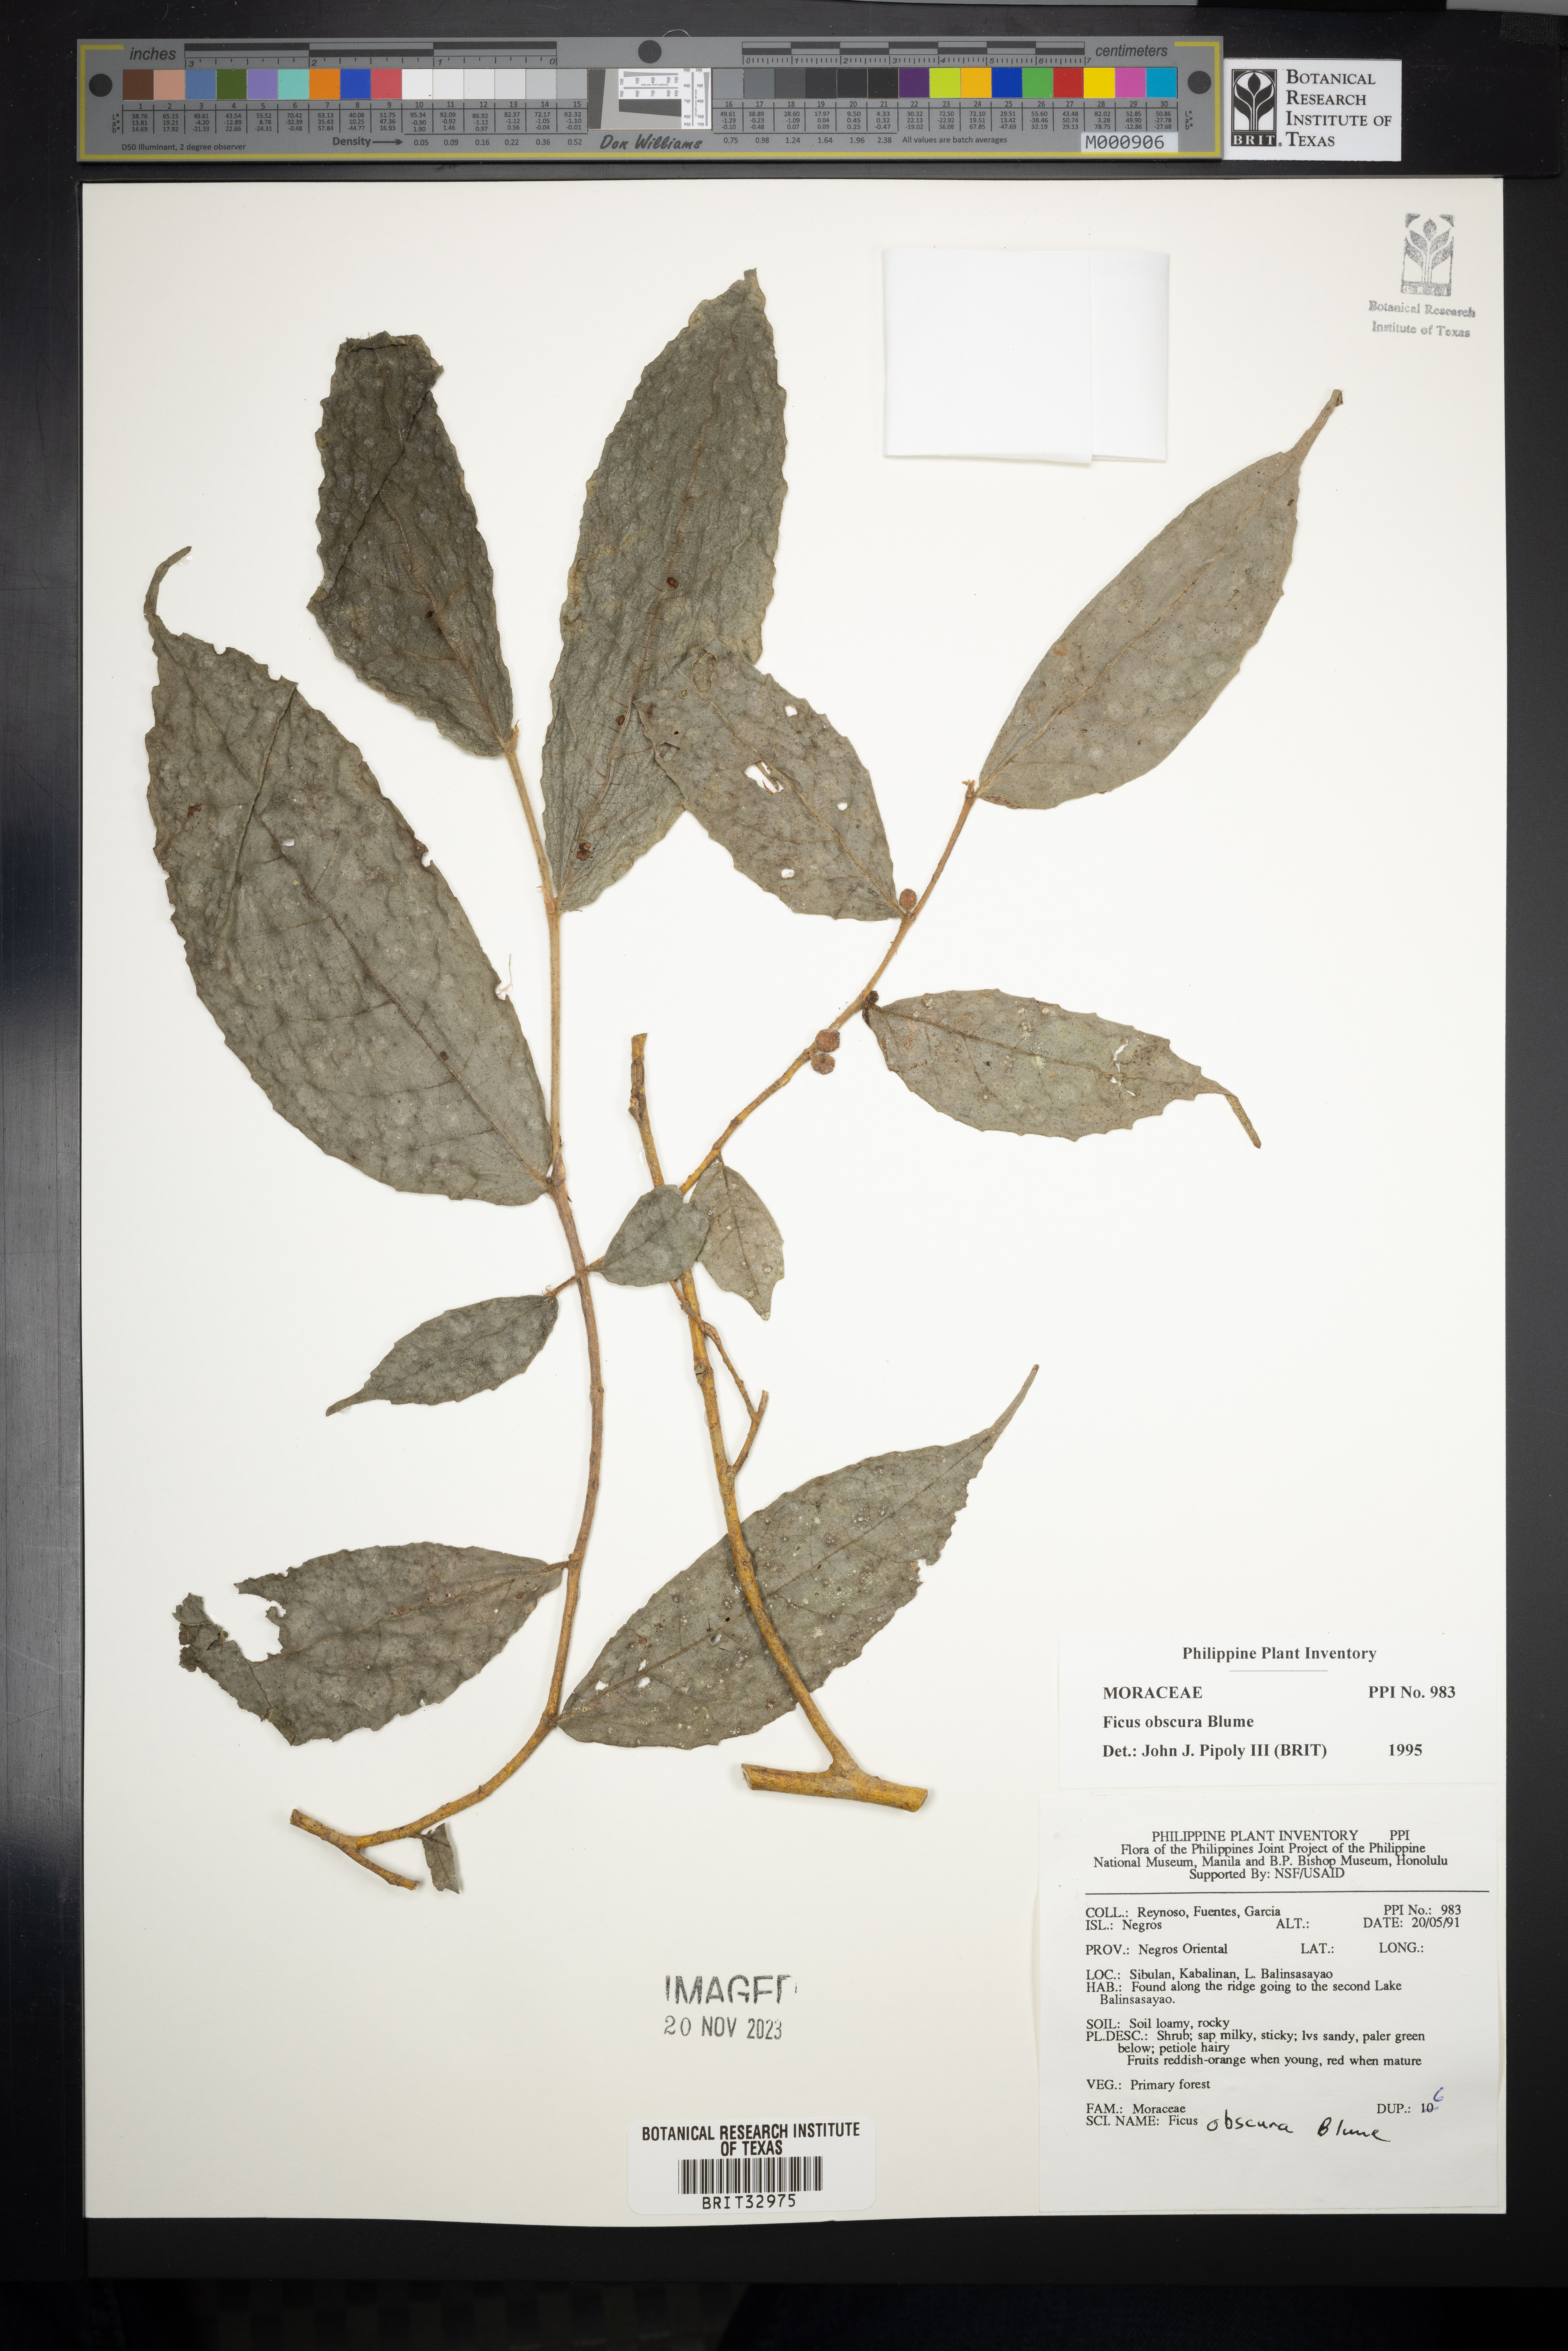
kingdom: Plantae
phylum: Tracheophyta
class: Magnoliopsida
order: Rosales
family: Moraceae
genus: Ficus
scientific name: Ficus obscura
